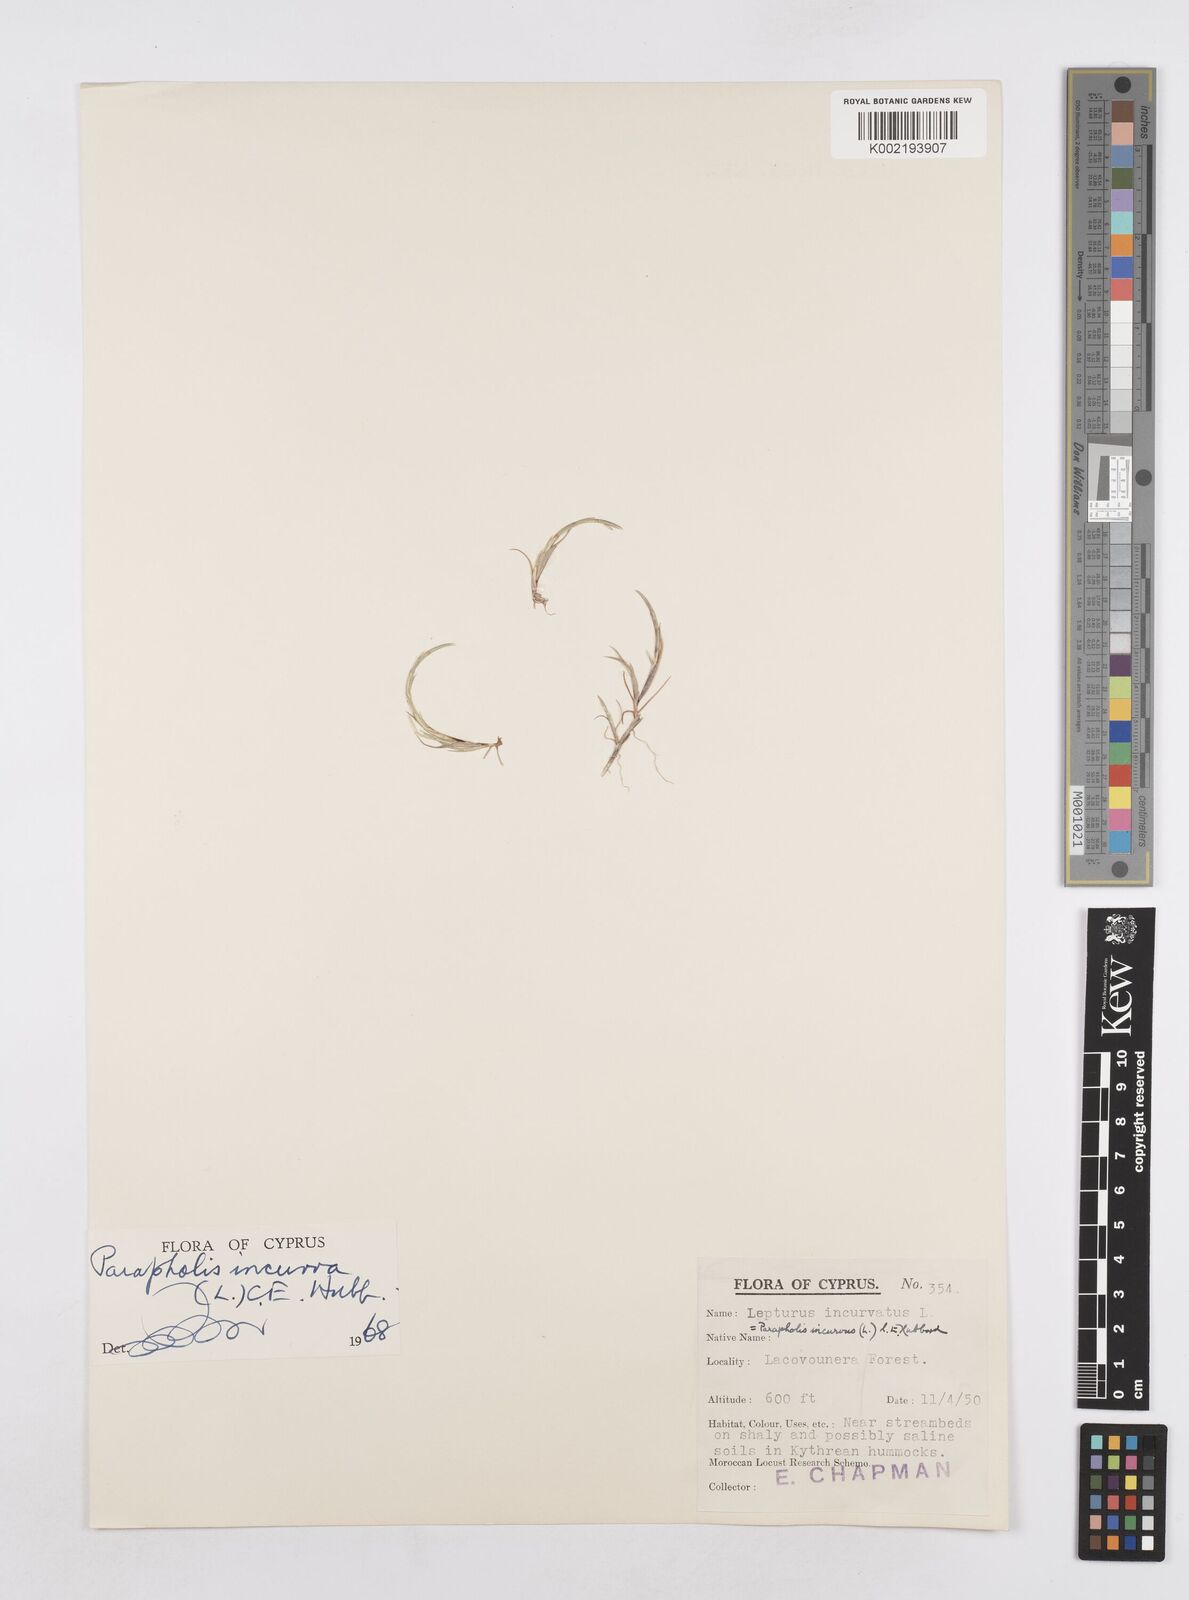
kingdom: Plantae
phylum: Tracheophyta
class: Liliopsida
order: Poales
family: Poaceae
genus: Parapholis
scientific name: Parapholis incurva
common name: Curved sicklegrass
